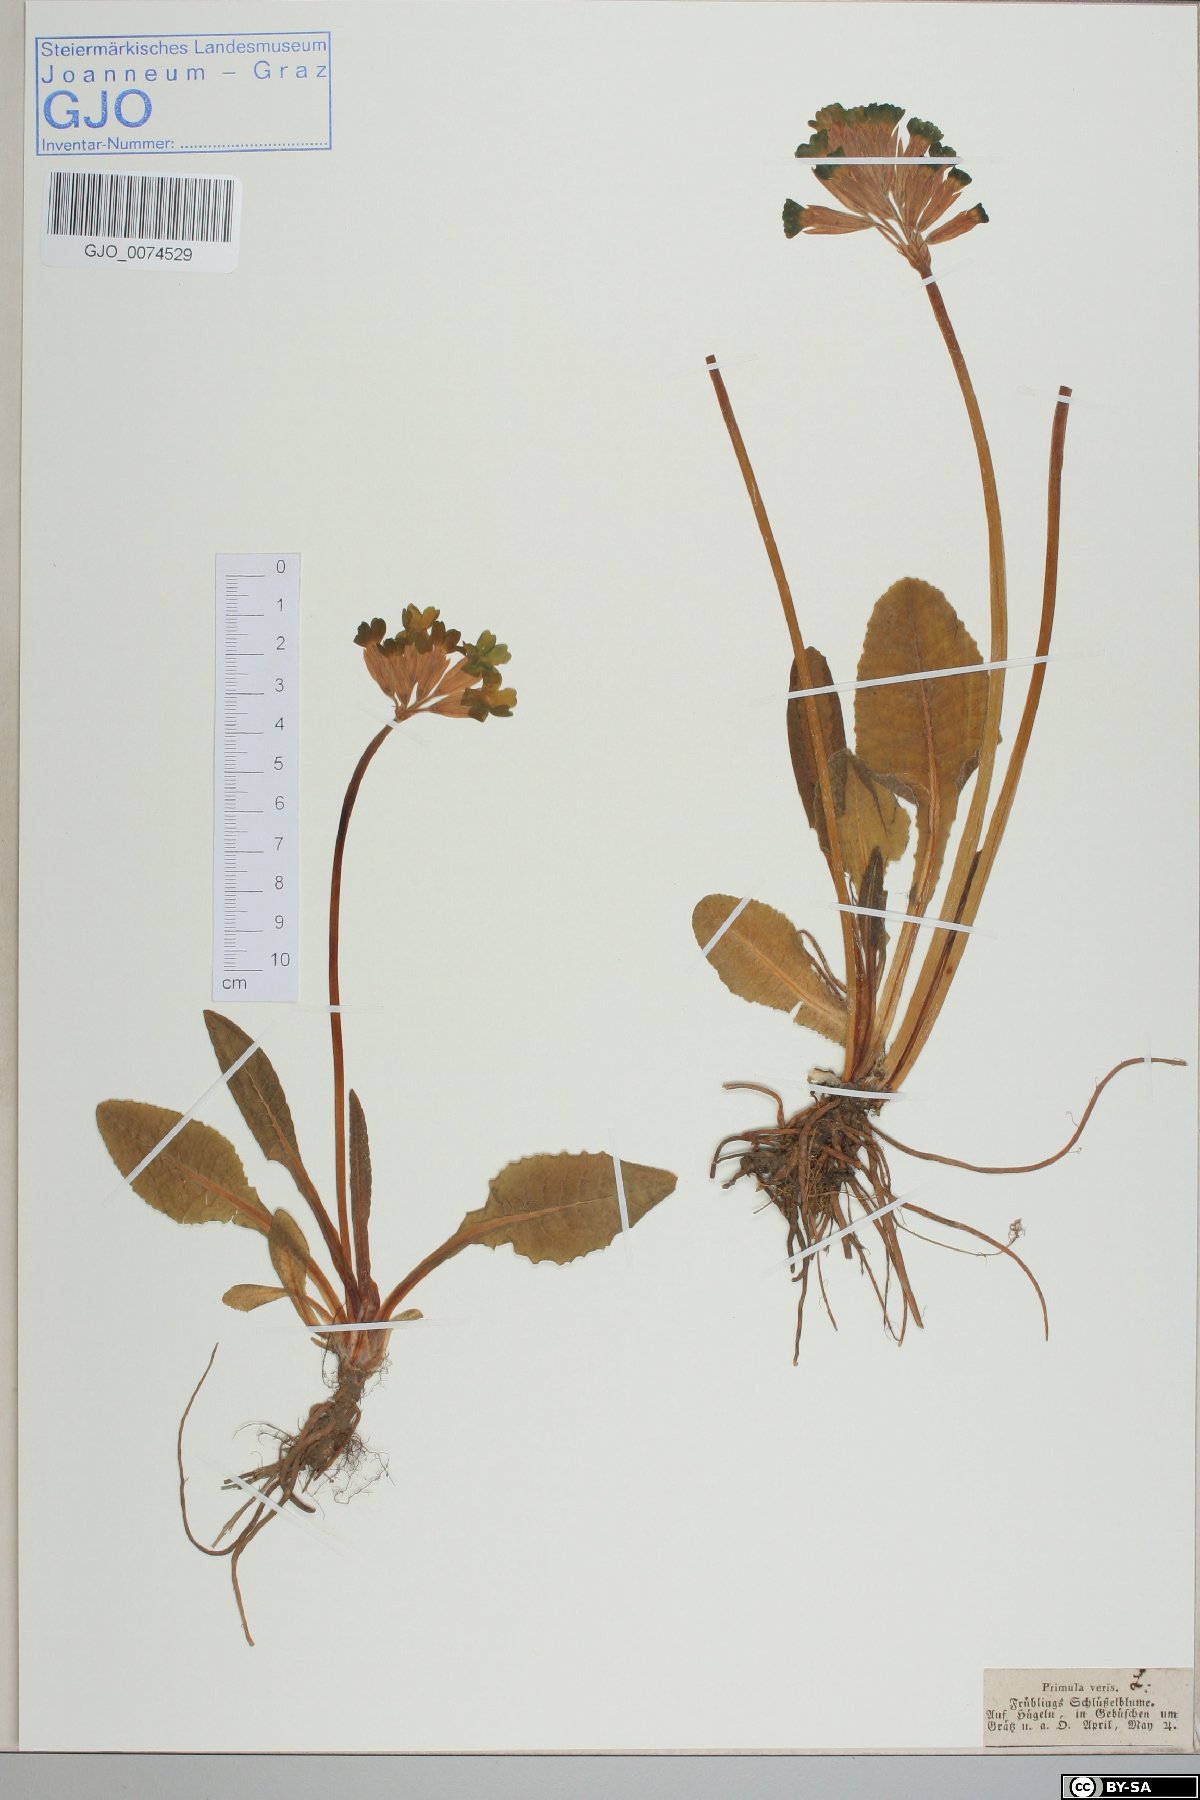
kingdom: Plantae
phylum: Tracheophyta
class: Magnoliopsida
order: Ericales
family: Primulaceae
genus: Primula
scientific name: Primula veris
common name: Cowslip
